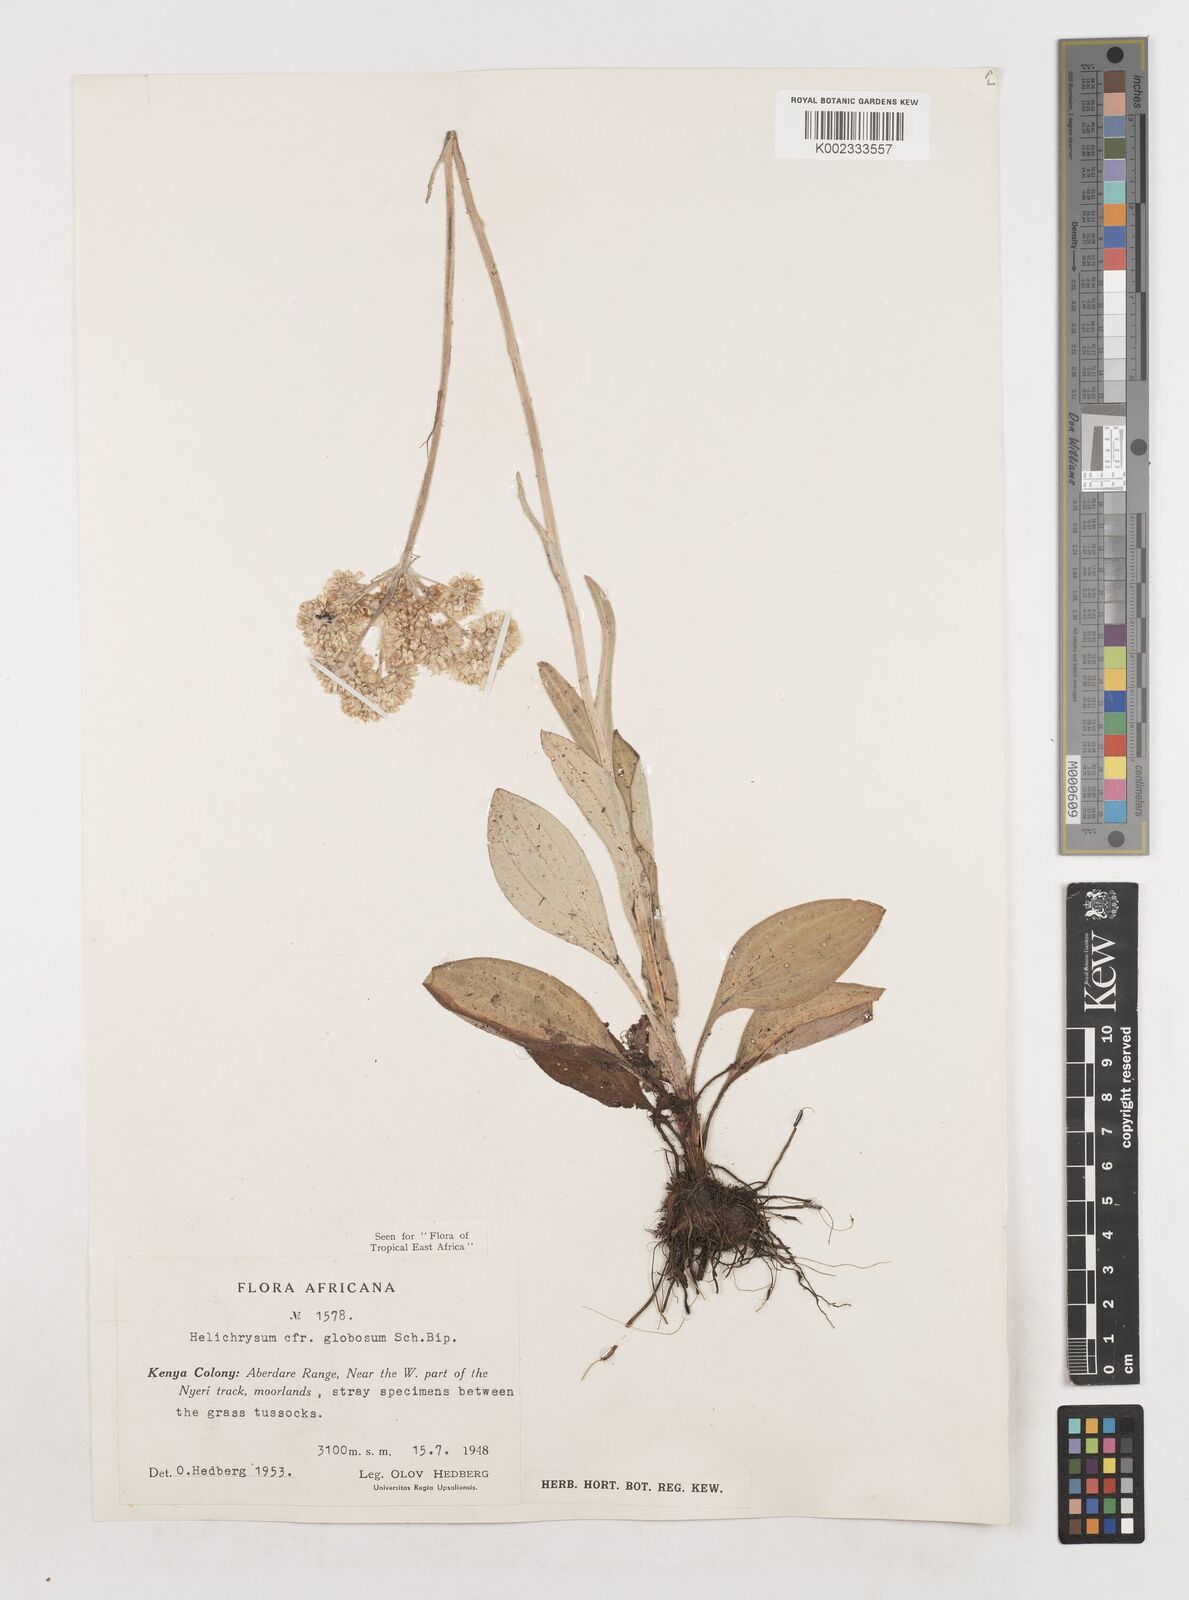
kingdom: Plantae
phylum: Tracheophyta
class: Magnoliopsida
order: Asterales
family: Asteraceae
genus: Helichrysum
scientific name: Helichrysum globosum
